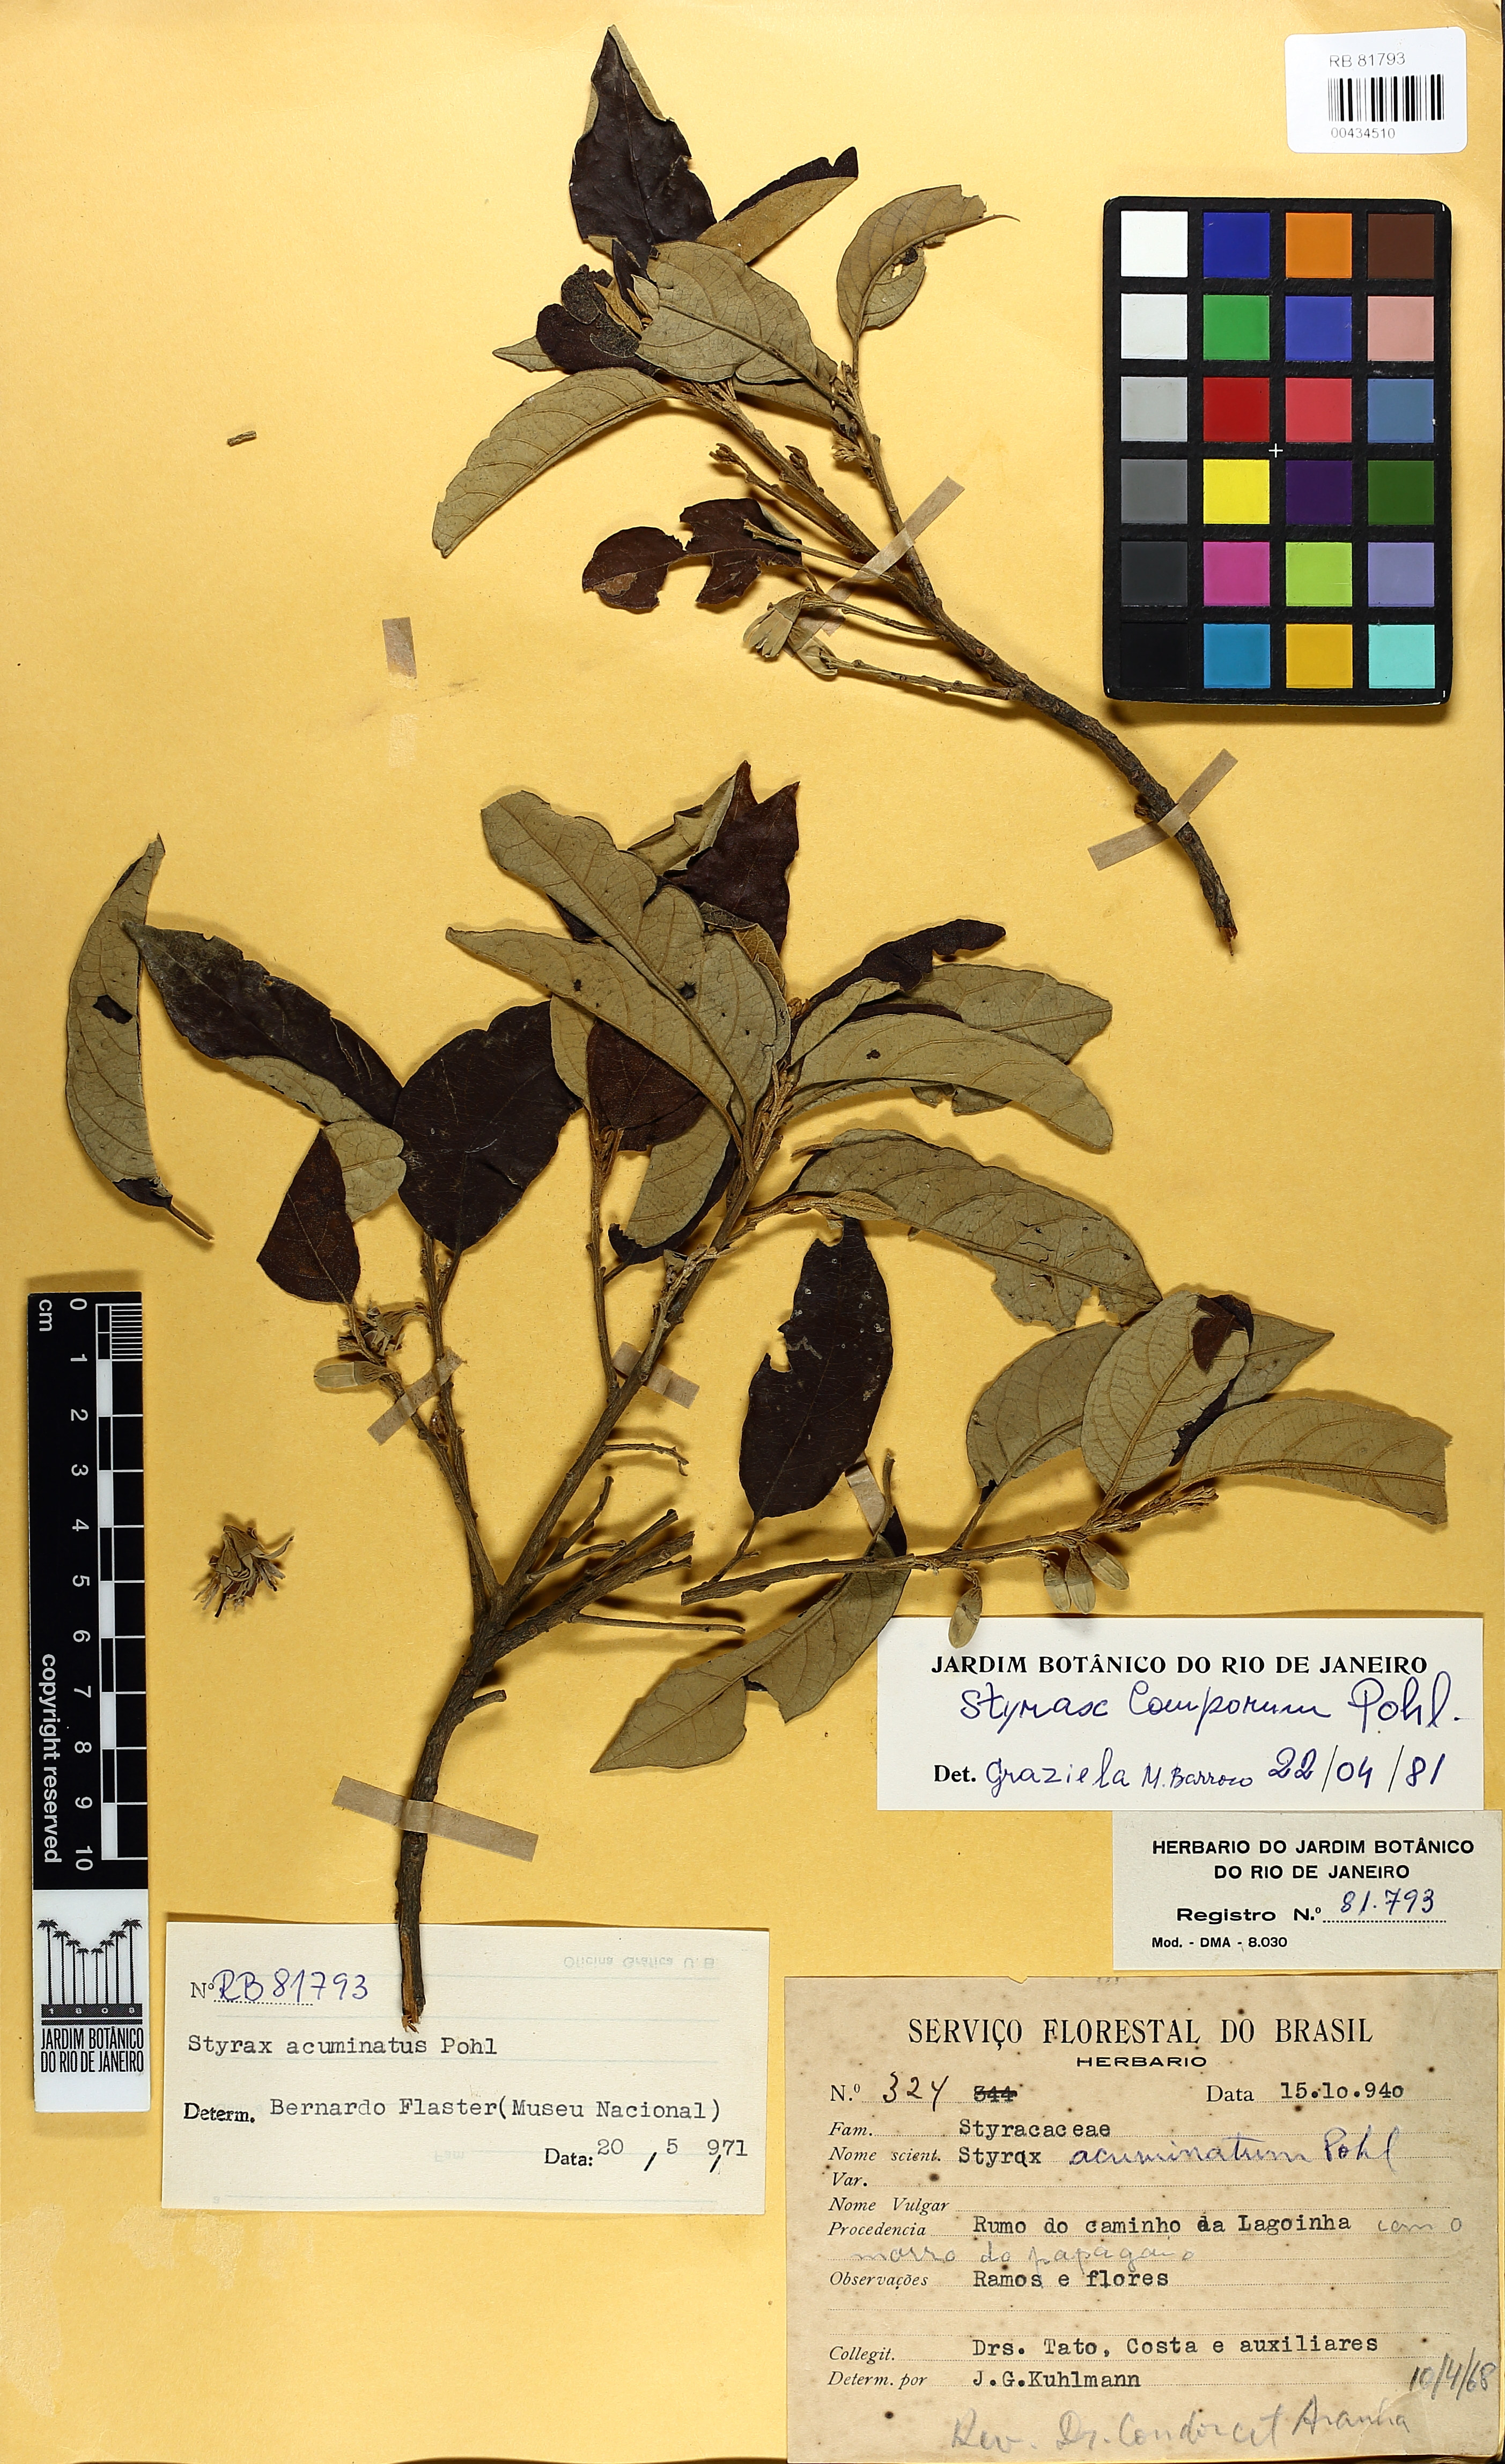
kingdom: Plantae
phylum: Tracheophyta
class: Magnoliopsida
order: Ericales
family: Styracaceae
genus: Styrax
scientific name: Styrax camporum
